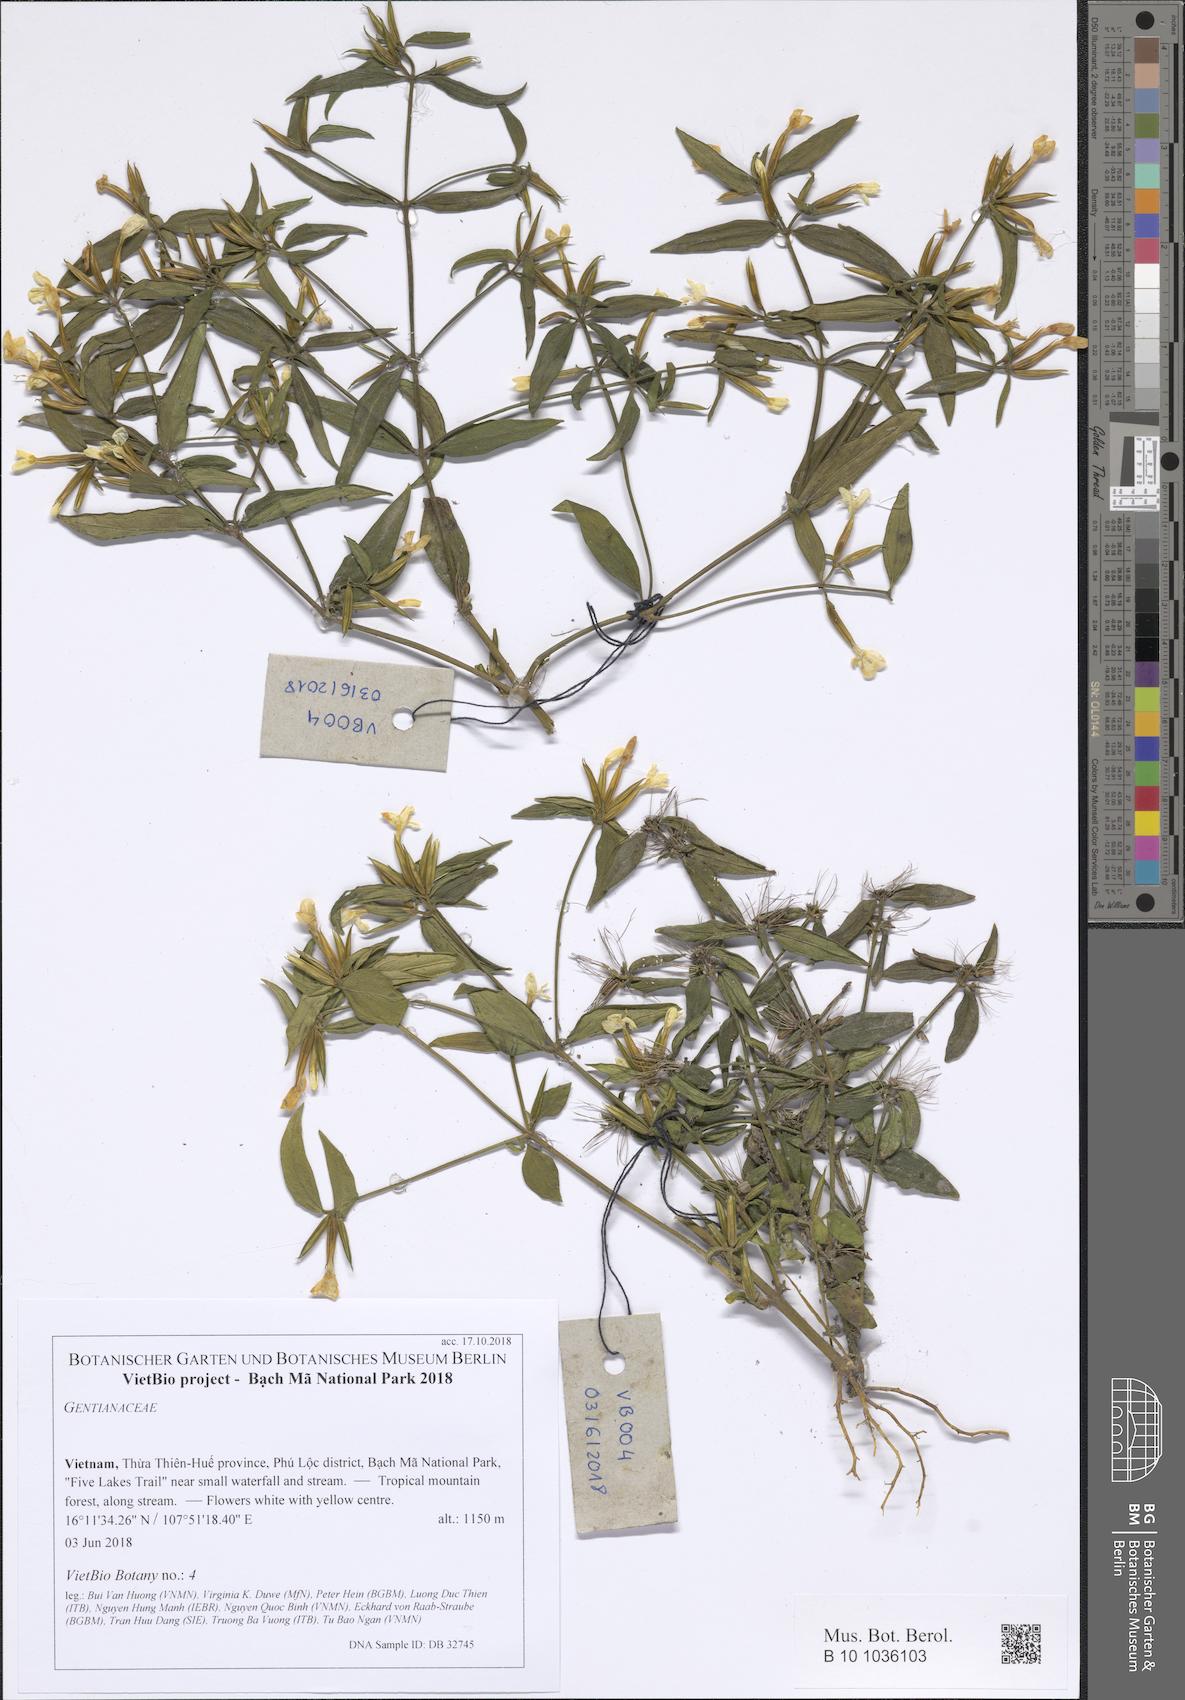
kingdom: Plantae
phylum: Tracheophyta
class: Magnoliopsida
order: Gentianales
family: Gentianaceae
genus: Canscora
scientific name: Canscora andrographioides
